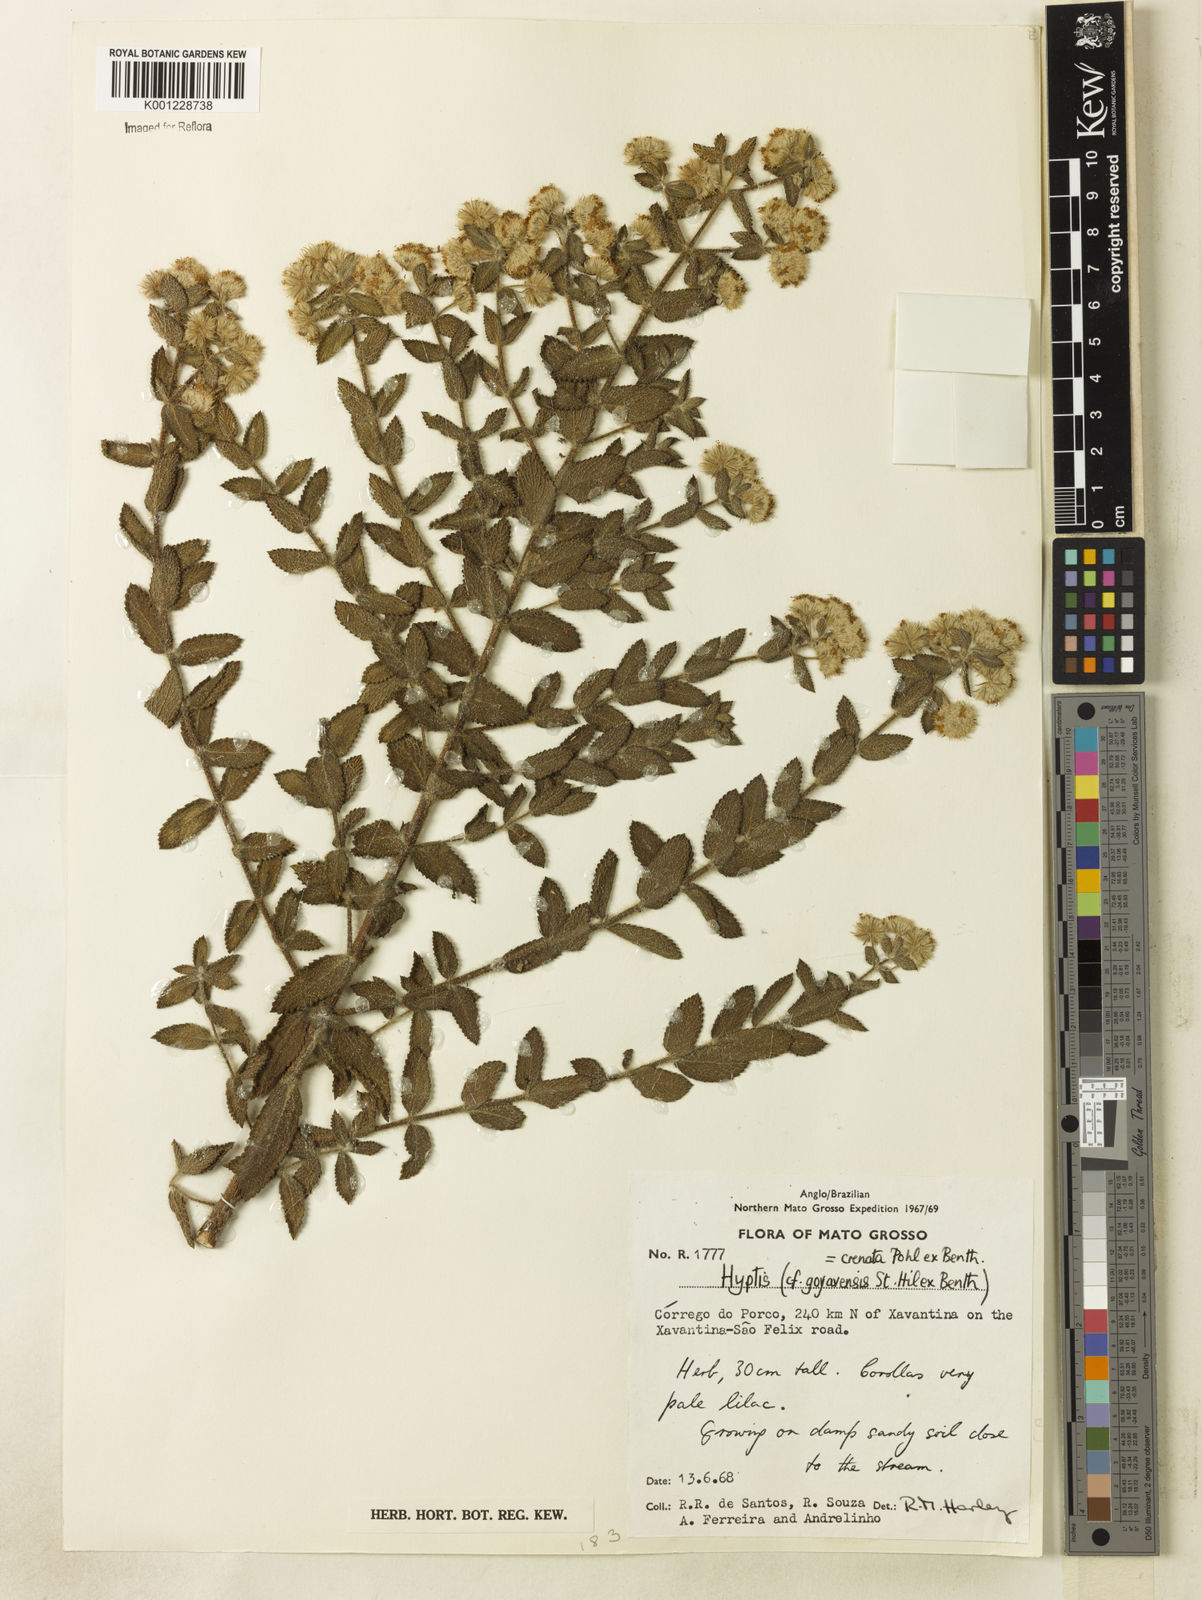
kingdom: Plantae
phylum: Tracheophyta
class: Magnoliopsida
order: Lamiales
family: Lamiaceae
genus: Hyptis
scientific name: Hyptis crenata
